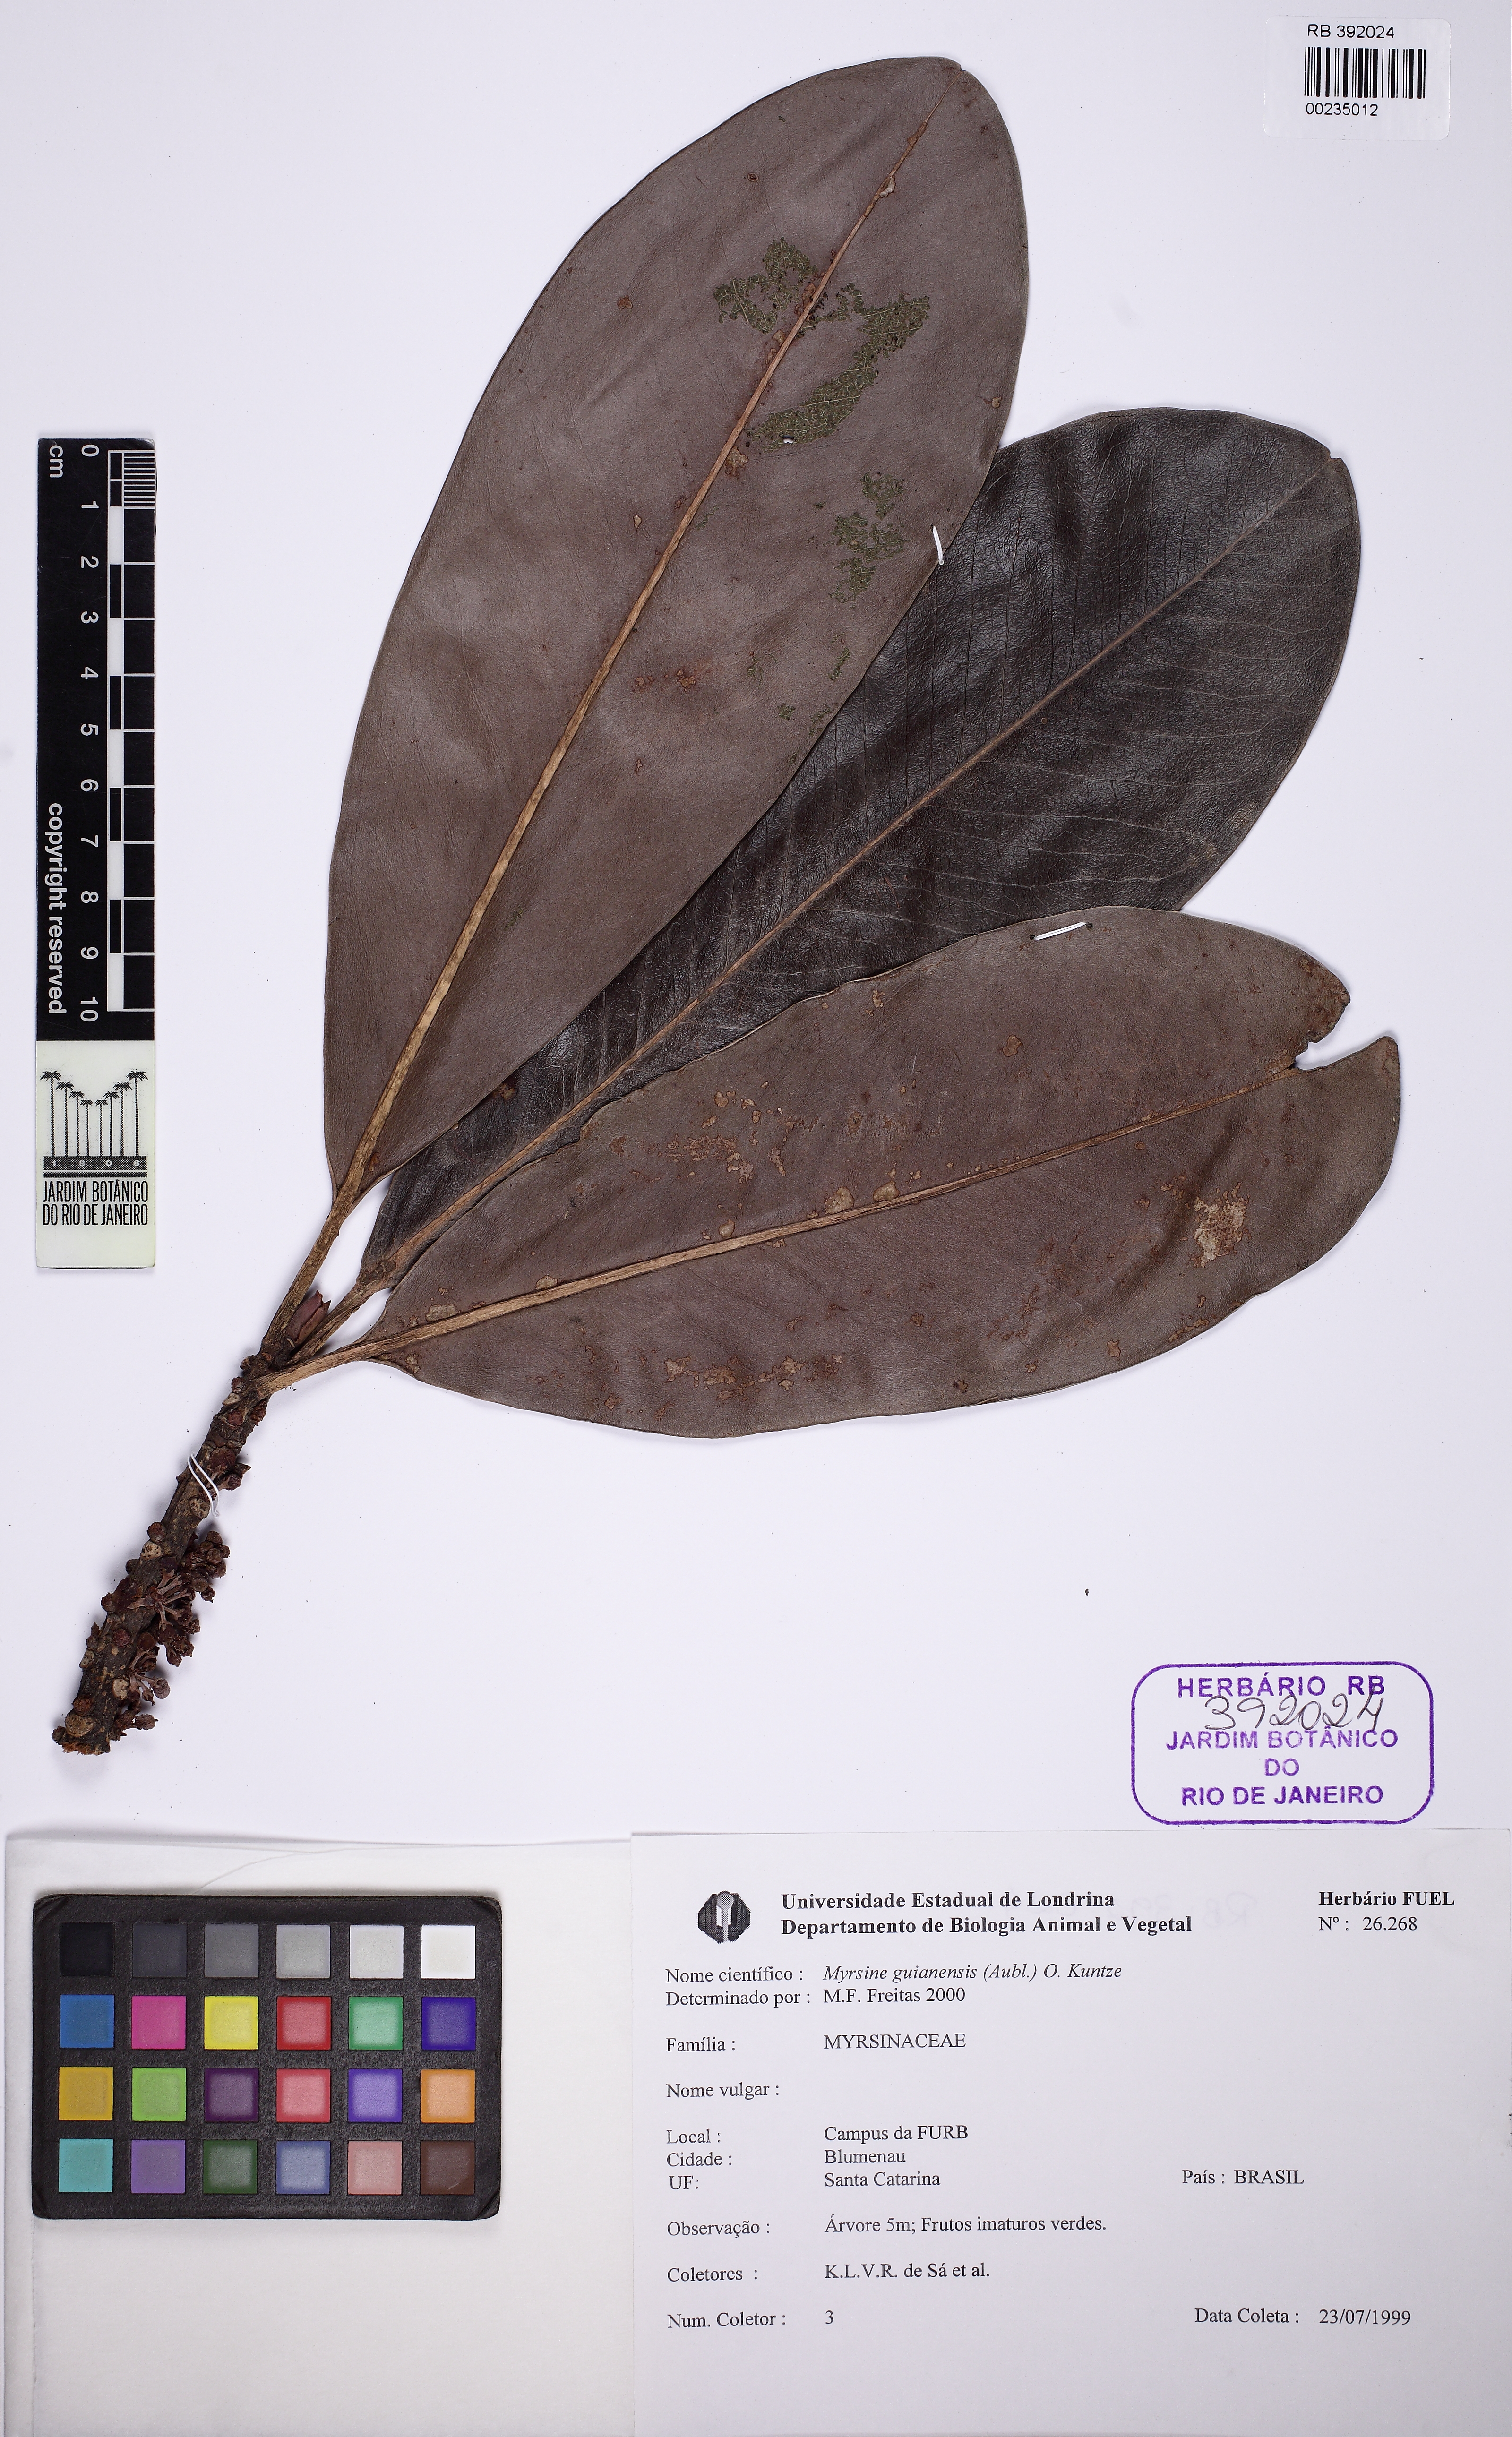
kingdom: Plantae
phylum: Tracheophyta
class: Magnoliopsida
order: Ericales
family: Primulaceae
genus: Myrsine
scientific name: Myrsine guianensis
